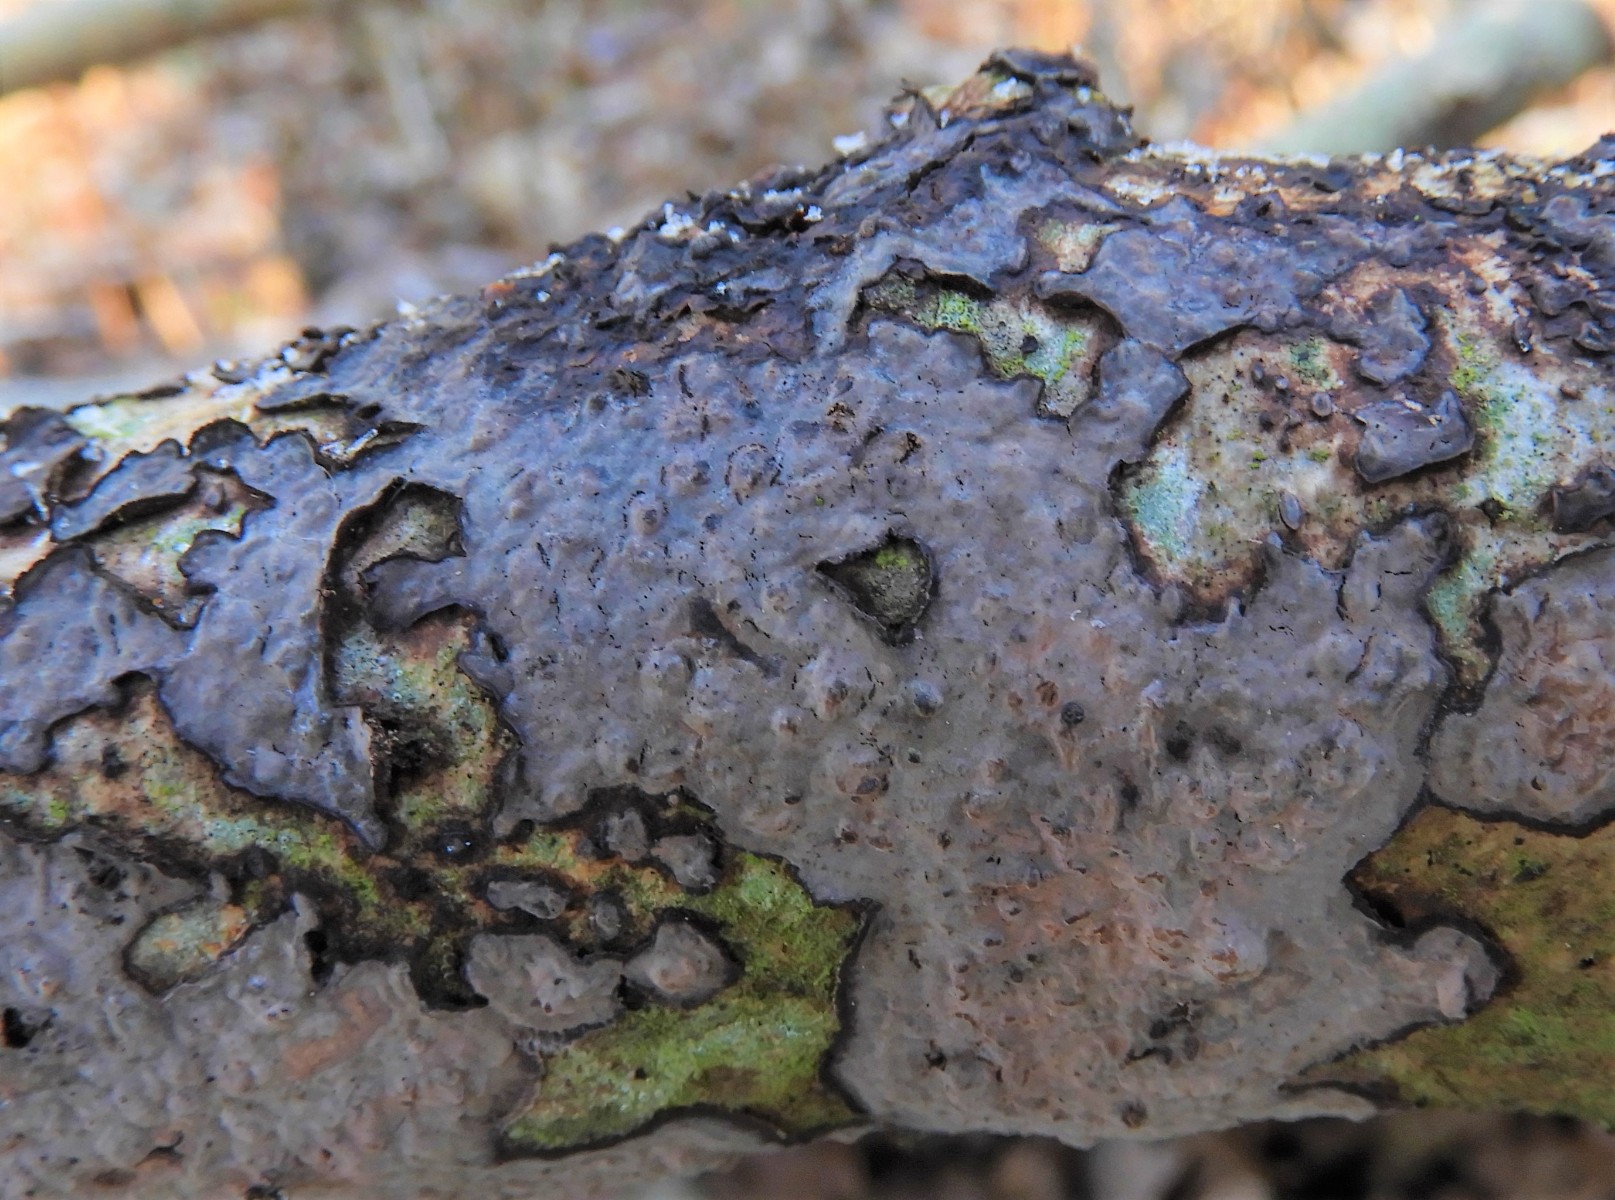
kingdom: Fungi
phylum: Basidiomycota
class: Agaricomycetes
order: Russulales
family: Peniophoraceae
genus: Peniophora
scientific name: Peniophora quercina
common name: ege-voksskind
